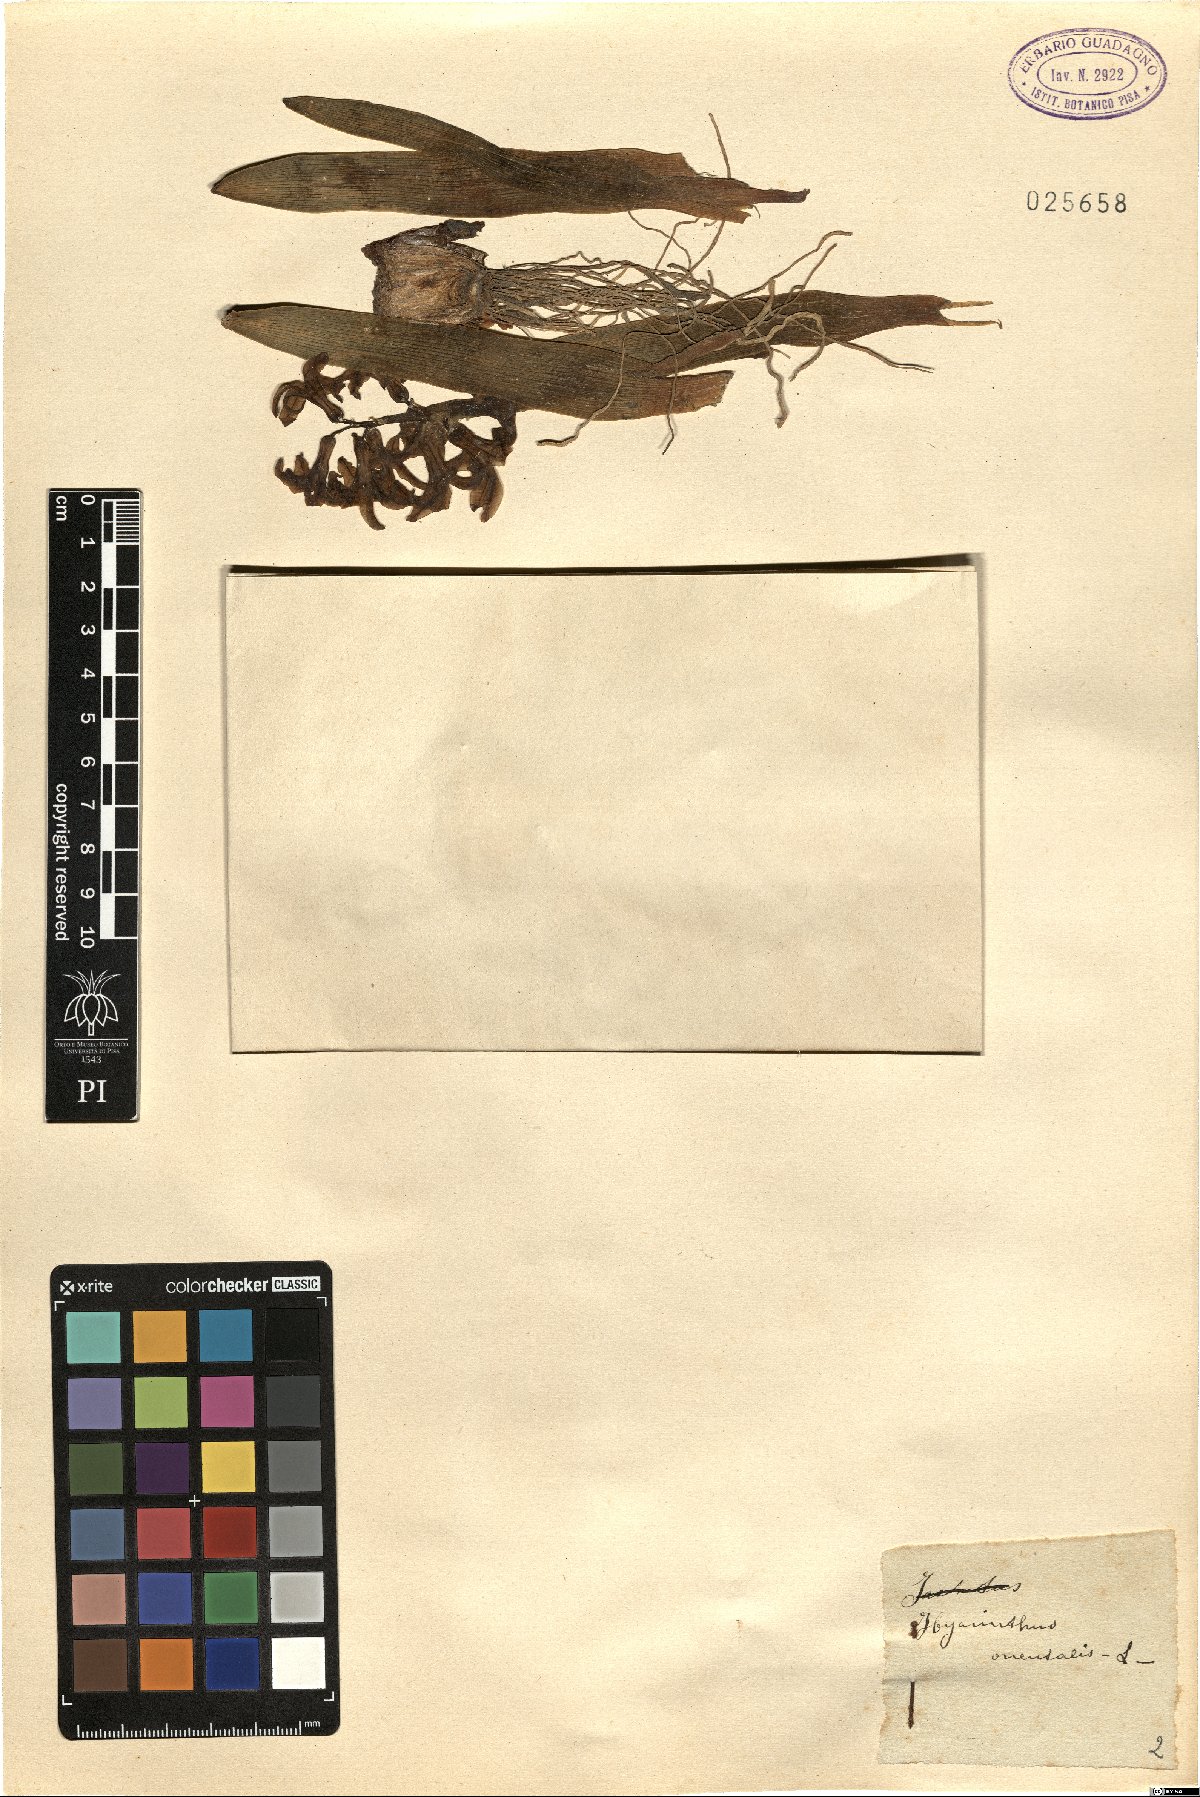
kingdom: Plantae
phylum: Tracheophyta
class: Liliopsida
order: Asparagales
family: Asparagaceae
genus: Hyacinthus
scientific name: Hyacinthus orientalis
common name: Hyacinth
